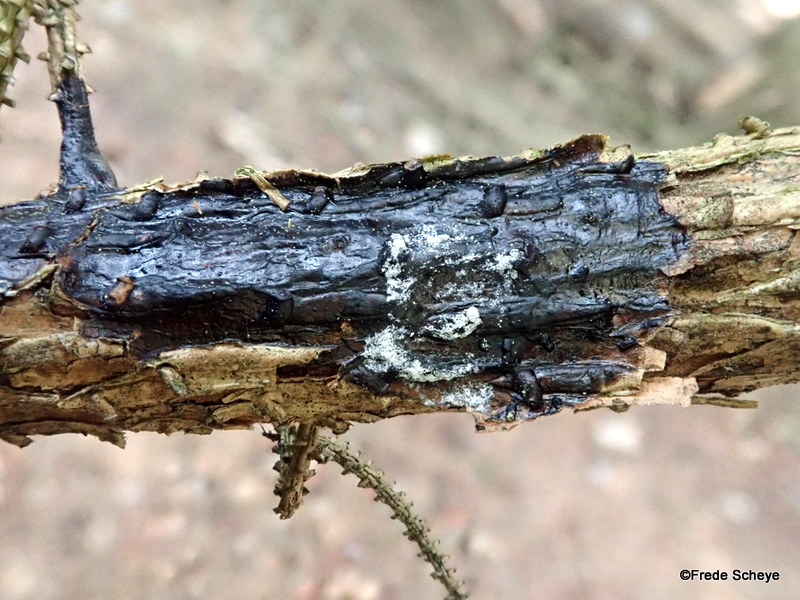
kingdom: Fungi
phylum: Basidiomycota
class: Agaricomycetes
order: Auriculariales
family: Auriculariaceae
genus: Exidia
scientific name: Exidia pithya
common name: gran-bævretop
